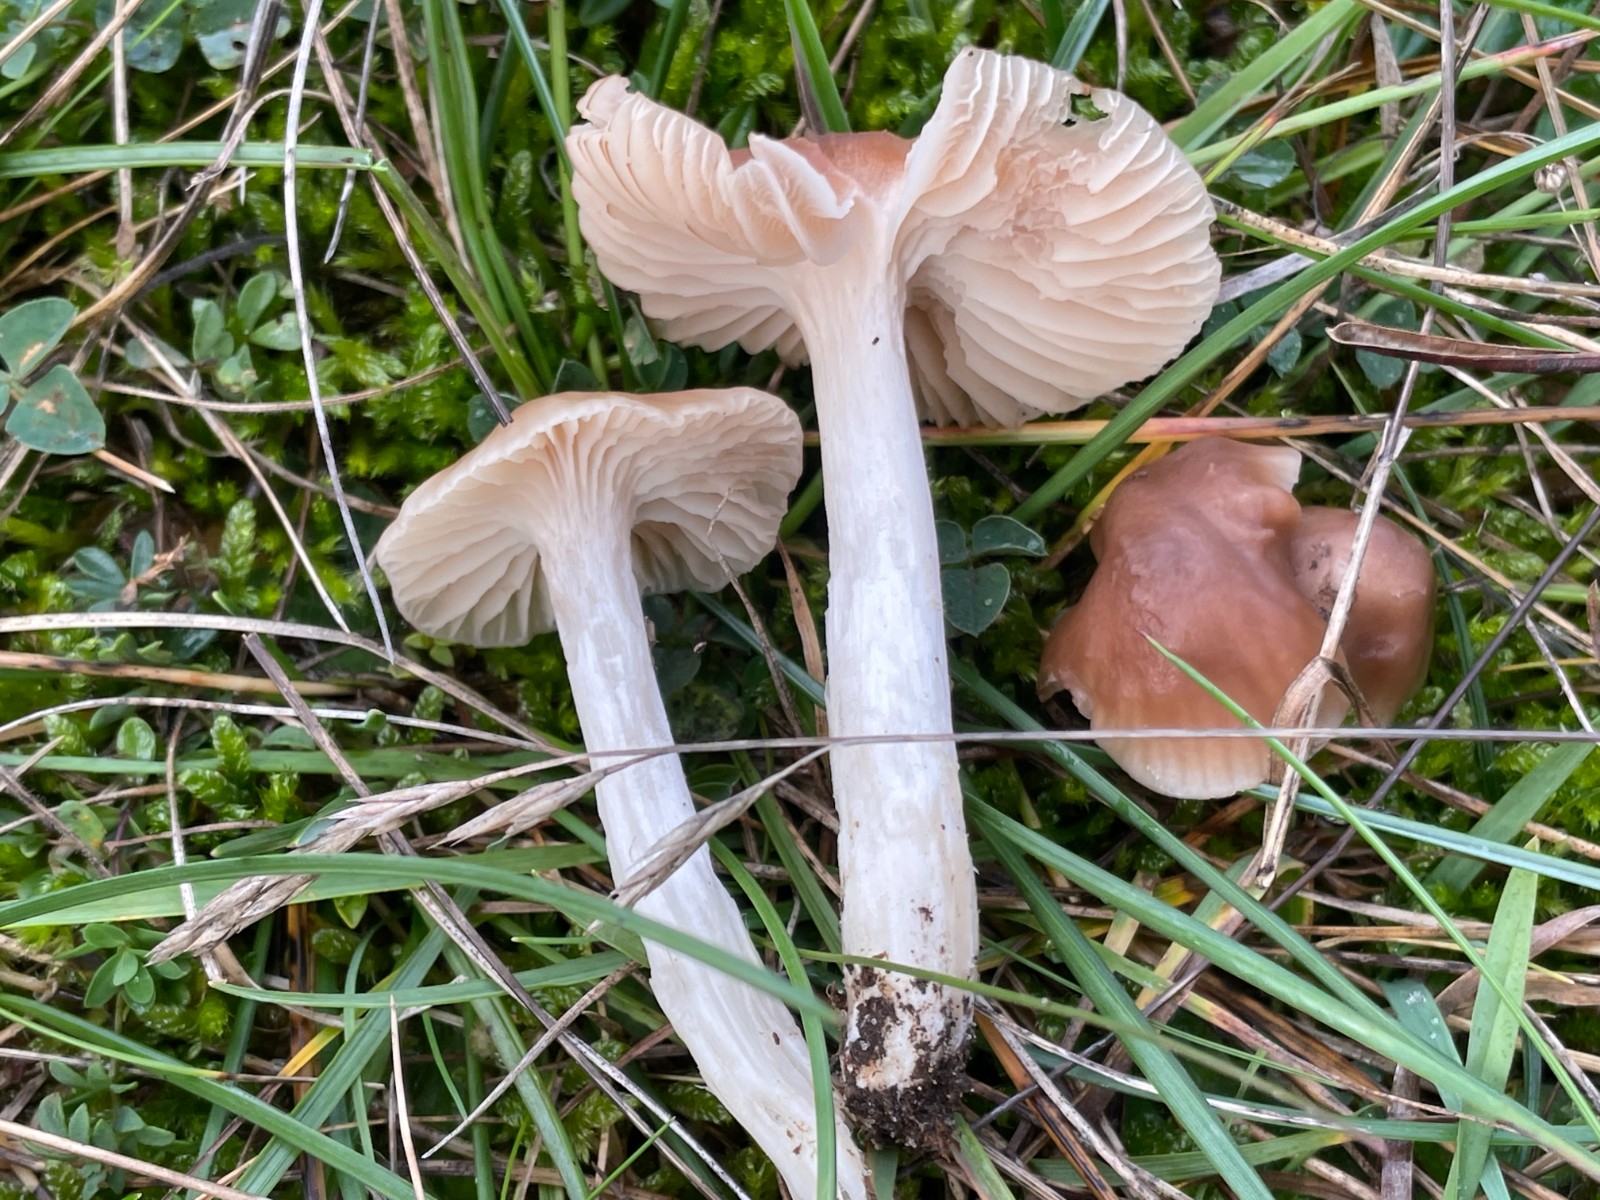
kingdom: Fungi
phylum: Basidiomycota
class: Agaricomycetes
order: Agaricales
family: Hygrophoraceae
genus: Cuphophyllus
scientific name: Cuphophyllus colemannianus
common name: rødbrun vokshat
